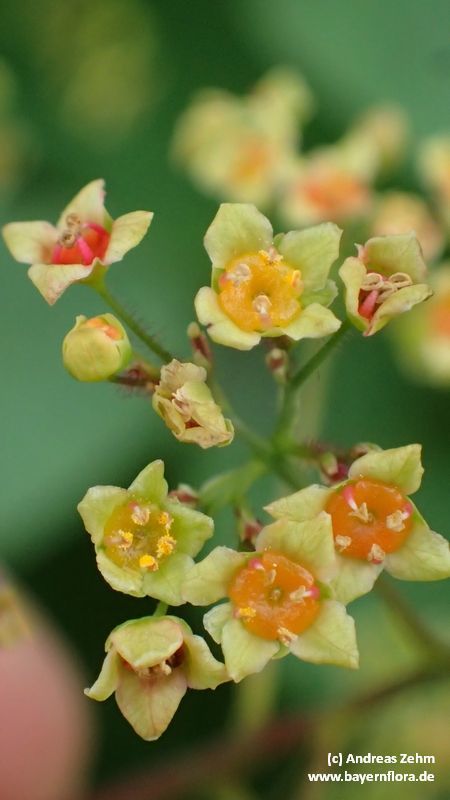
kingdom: Plantae
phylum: Tracheophyta
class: Magnoliopsida
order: Sapindales
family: Anacardiaceae
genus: Cotinus
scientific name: Cotinus coggygria
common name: Smoke-tree
